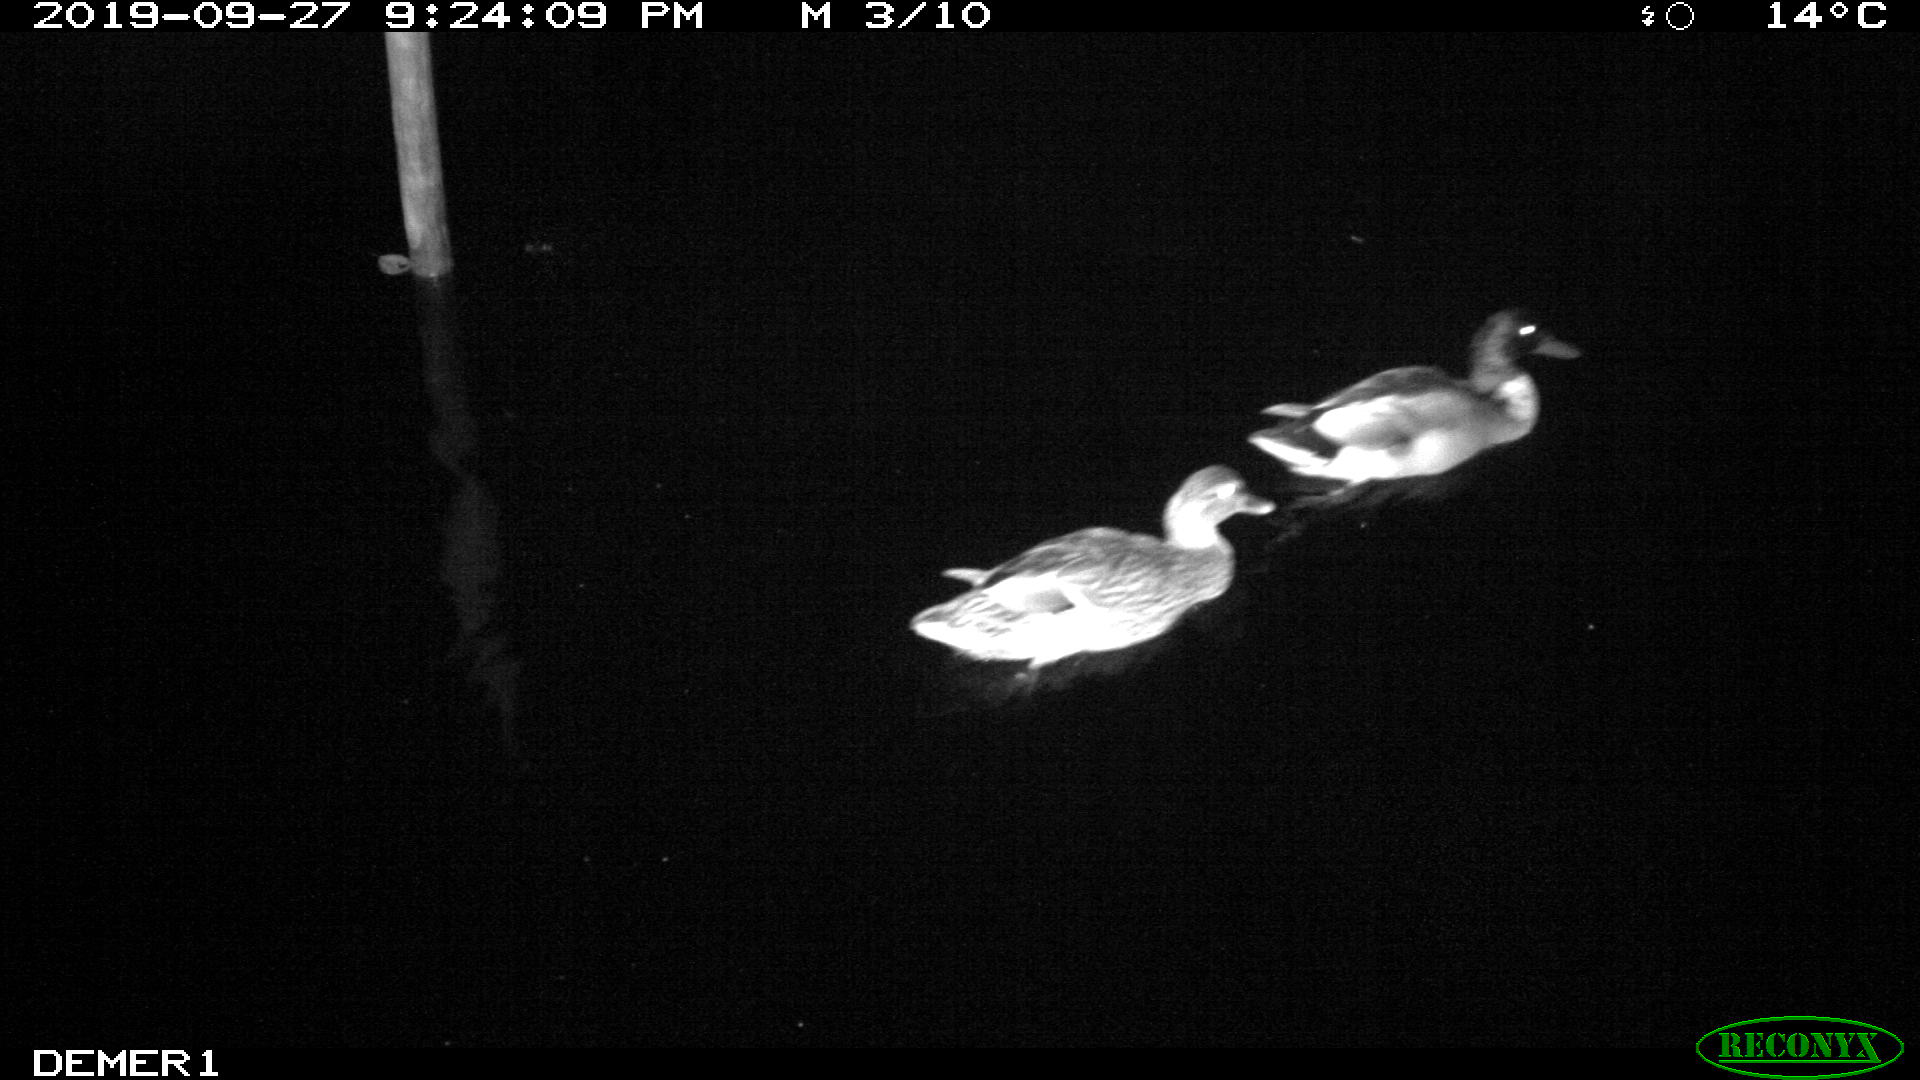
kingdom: Animalia
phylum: Chordata
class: Aves
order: Anseriformes
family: Anatidae
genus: Anas
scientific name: Anas platyrhynchos
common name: Mallard
